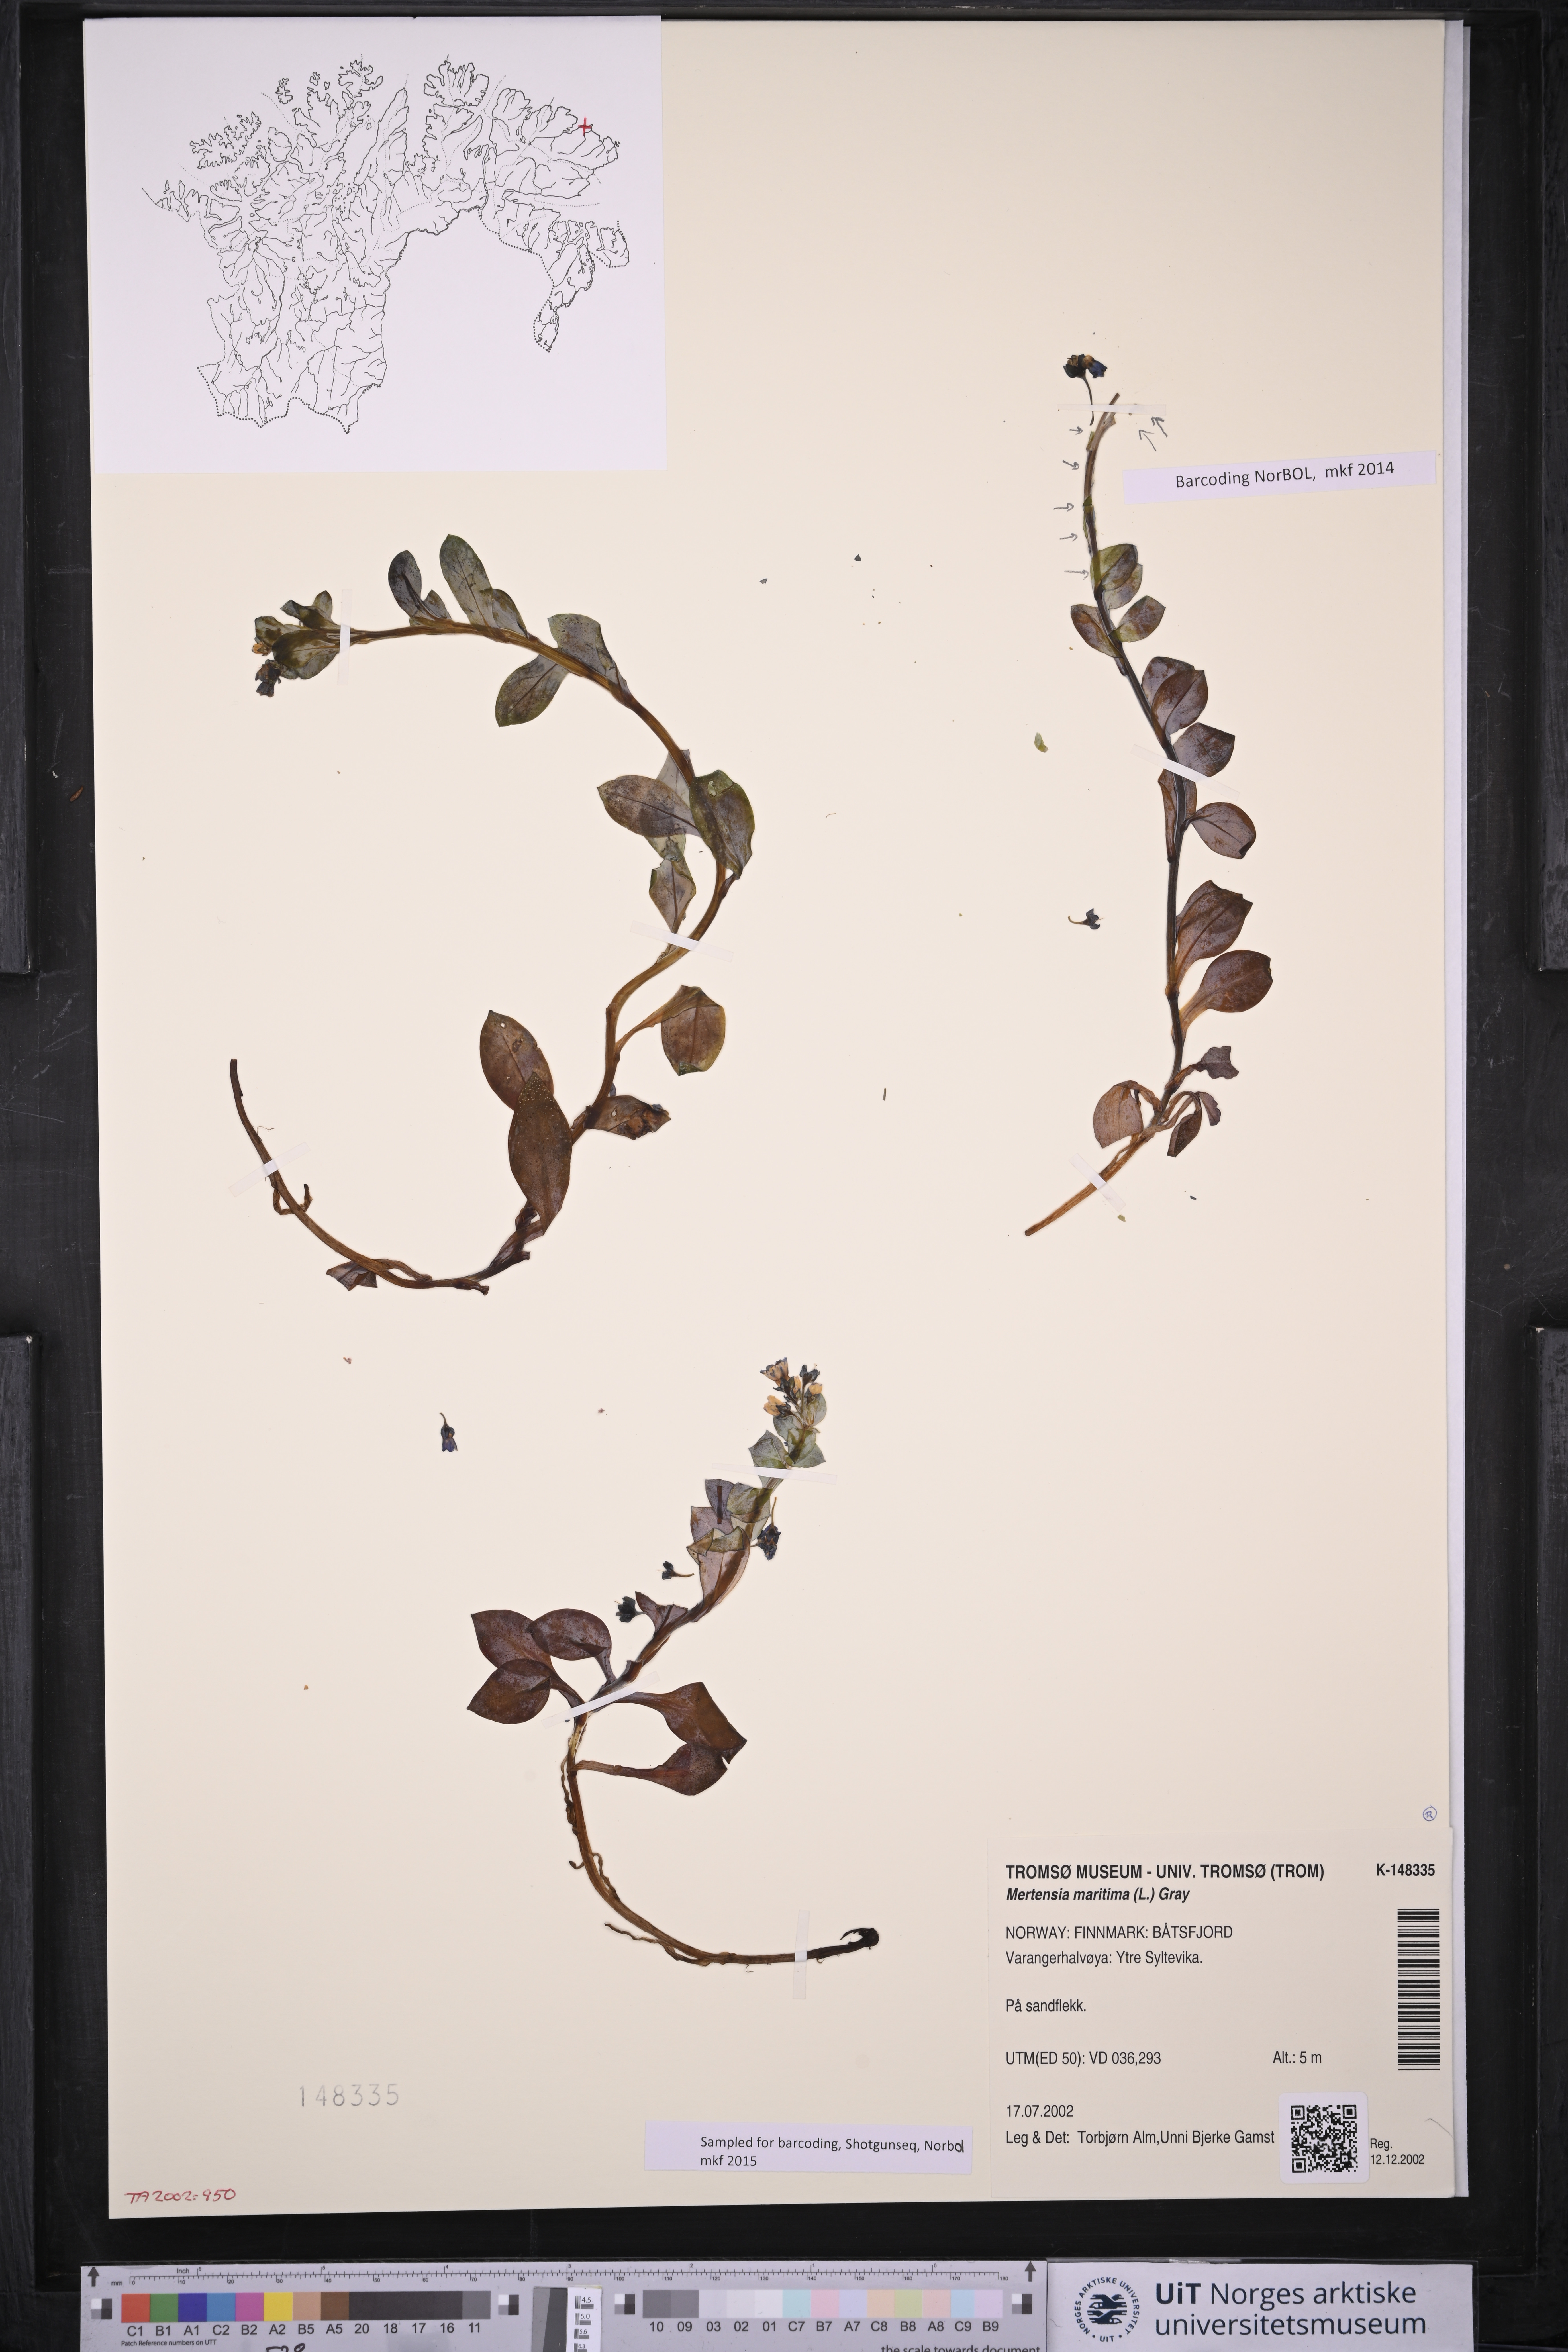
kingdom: Plantae
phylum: Tracheophyta
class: Magnoliopsida
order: Boraginales
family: Boraginaceae
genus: Mertensia
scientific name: Mertensia maritima
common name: Oysterplant
